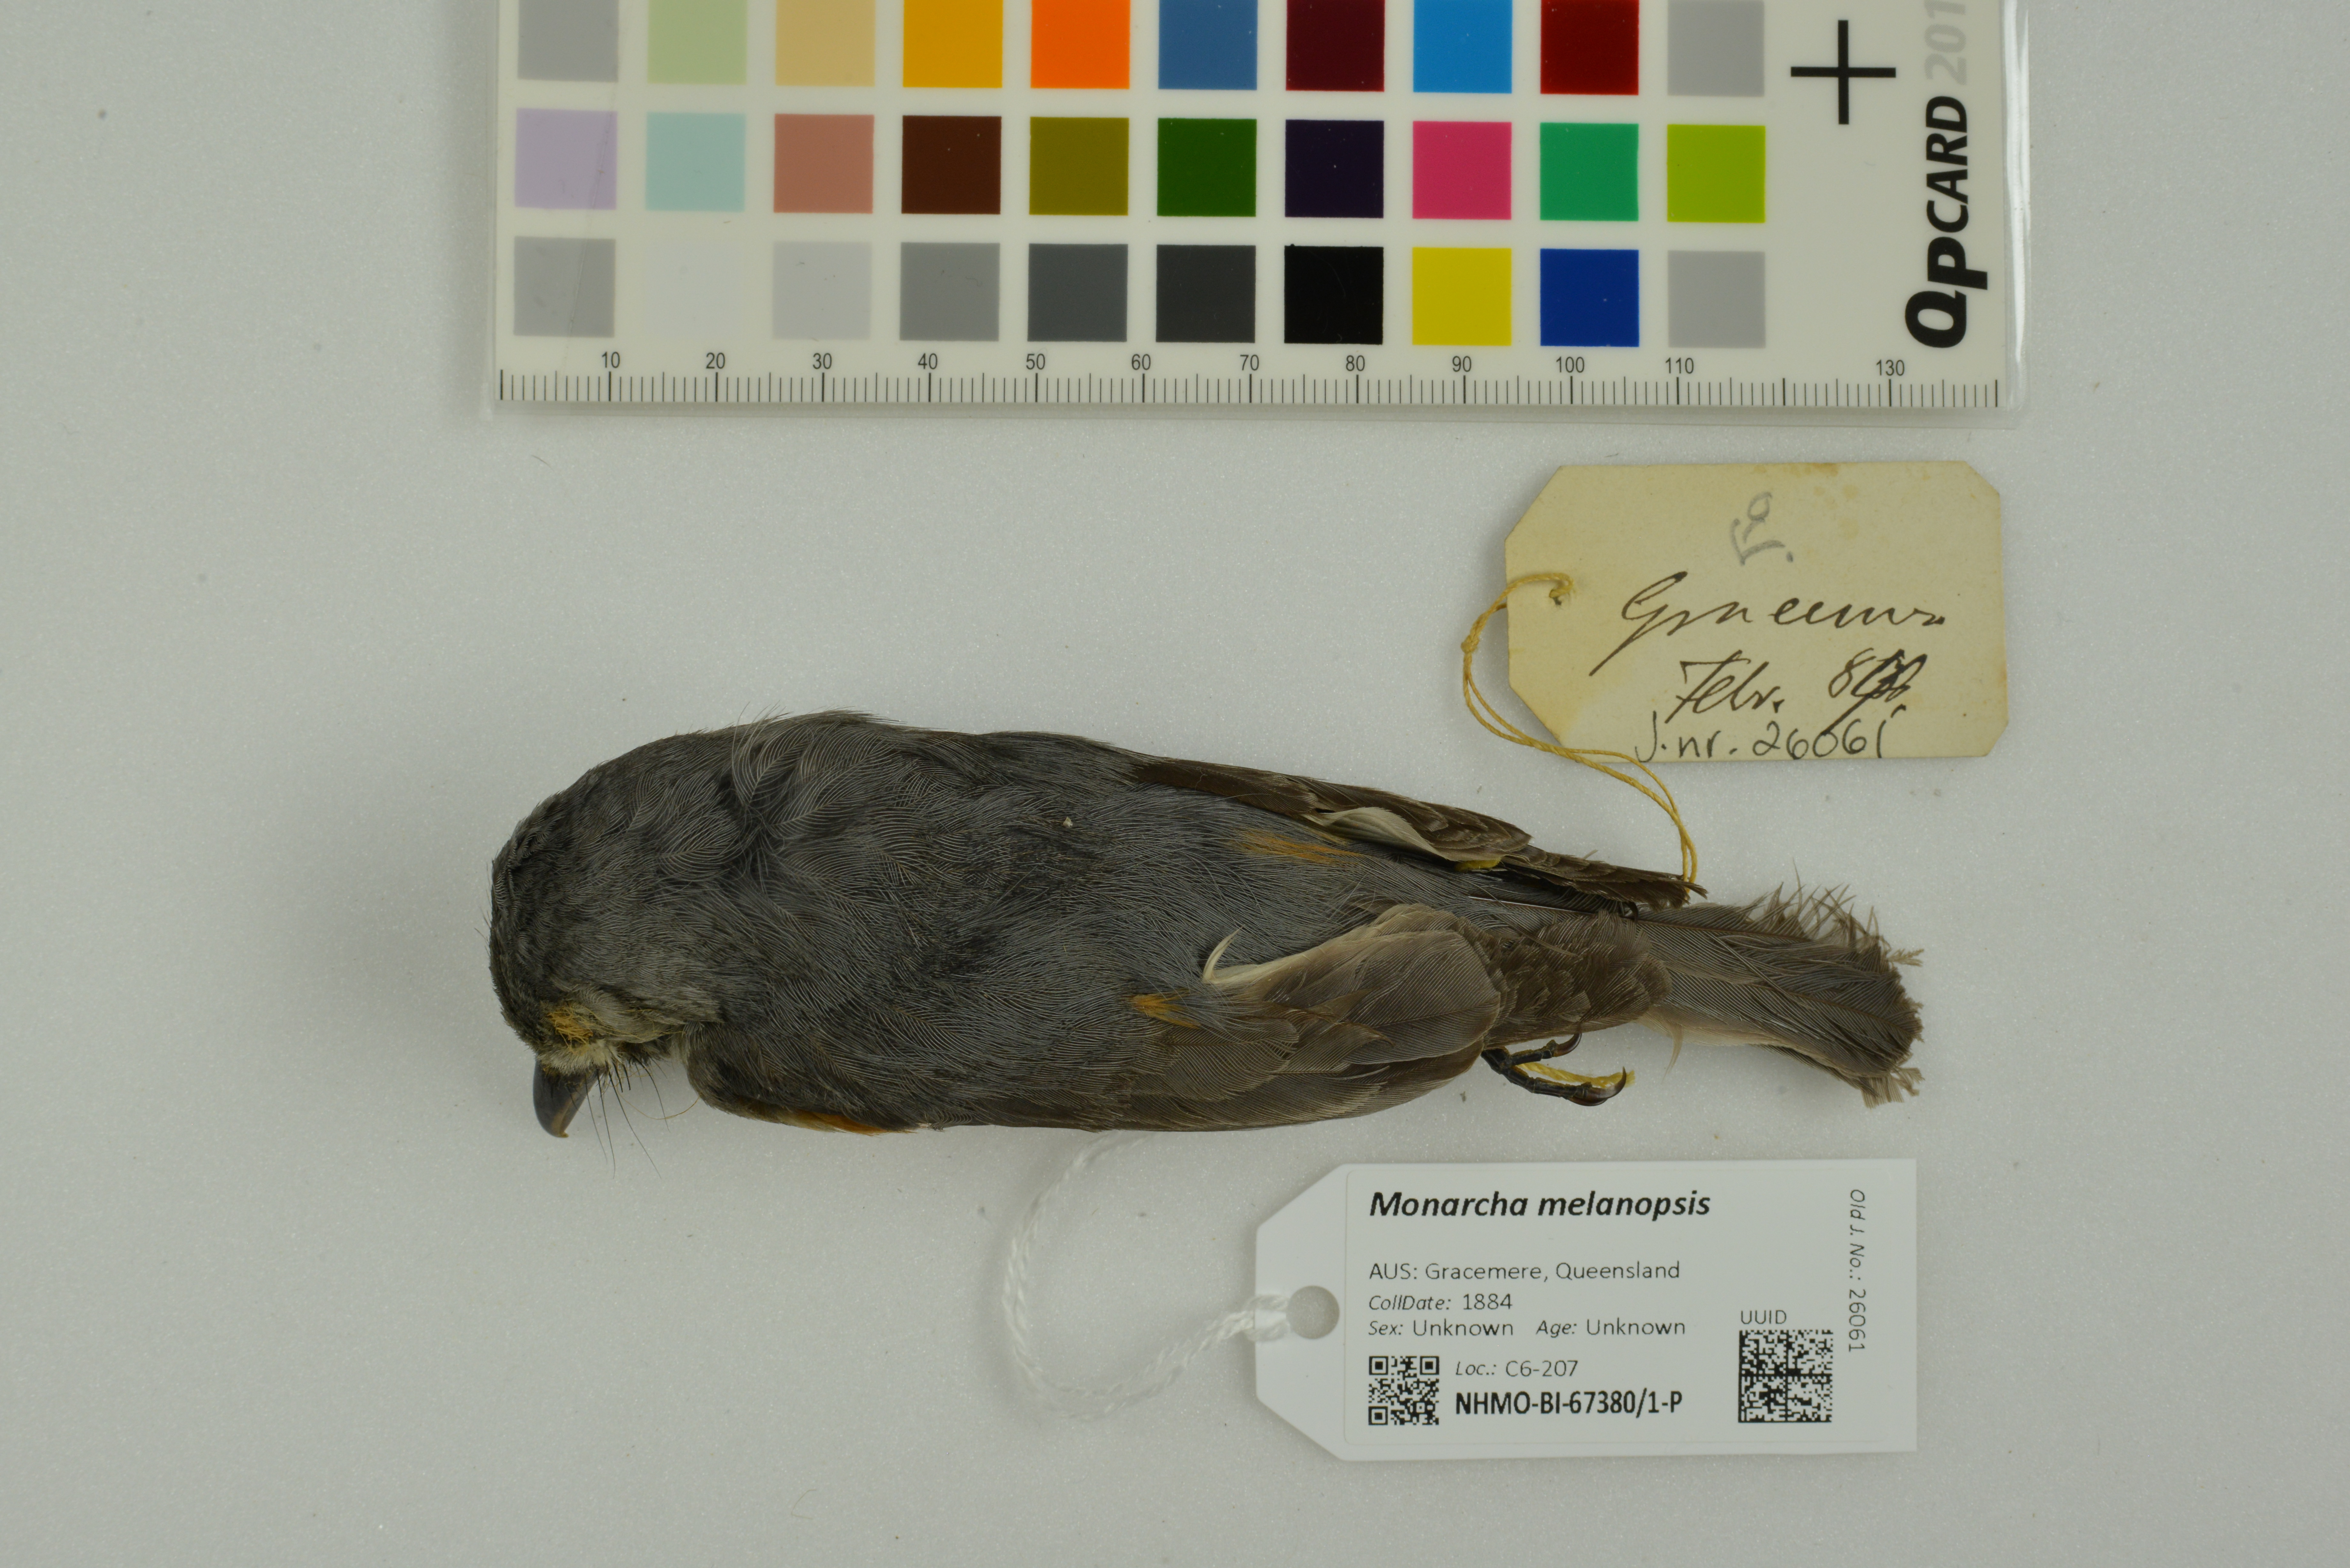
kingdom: Animalia
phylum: Chordata
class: Aves
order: Passeriformes
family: Monarchidae
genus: Monarcha
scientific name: Monarcha melanopsis
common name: Black-faced monarch
